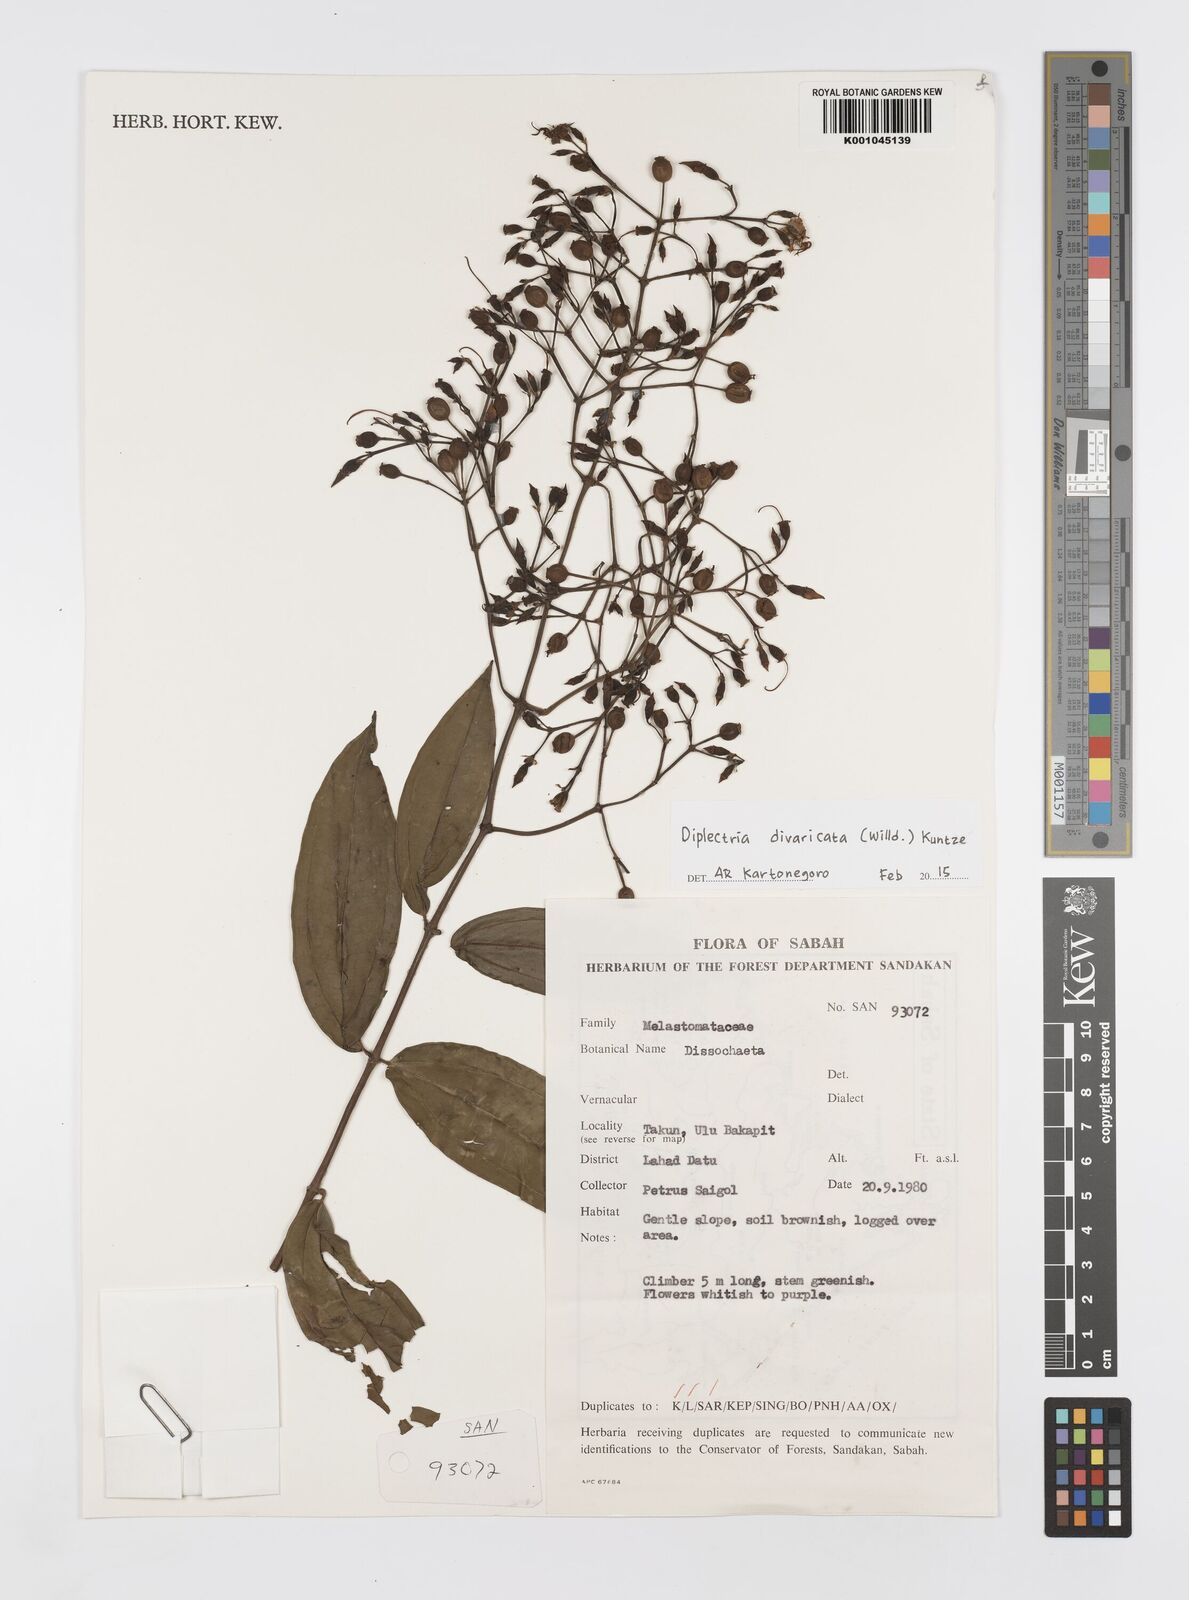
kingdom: Plantae
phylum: Tracheophyta
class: Magnoliopsida
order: Myrtales
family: Melastomataceae
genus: Diplectria
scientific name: Diplectria divaricata
